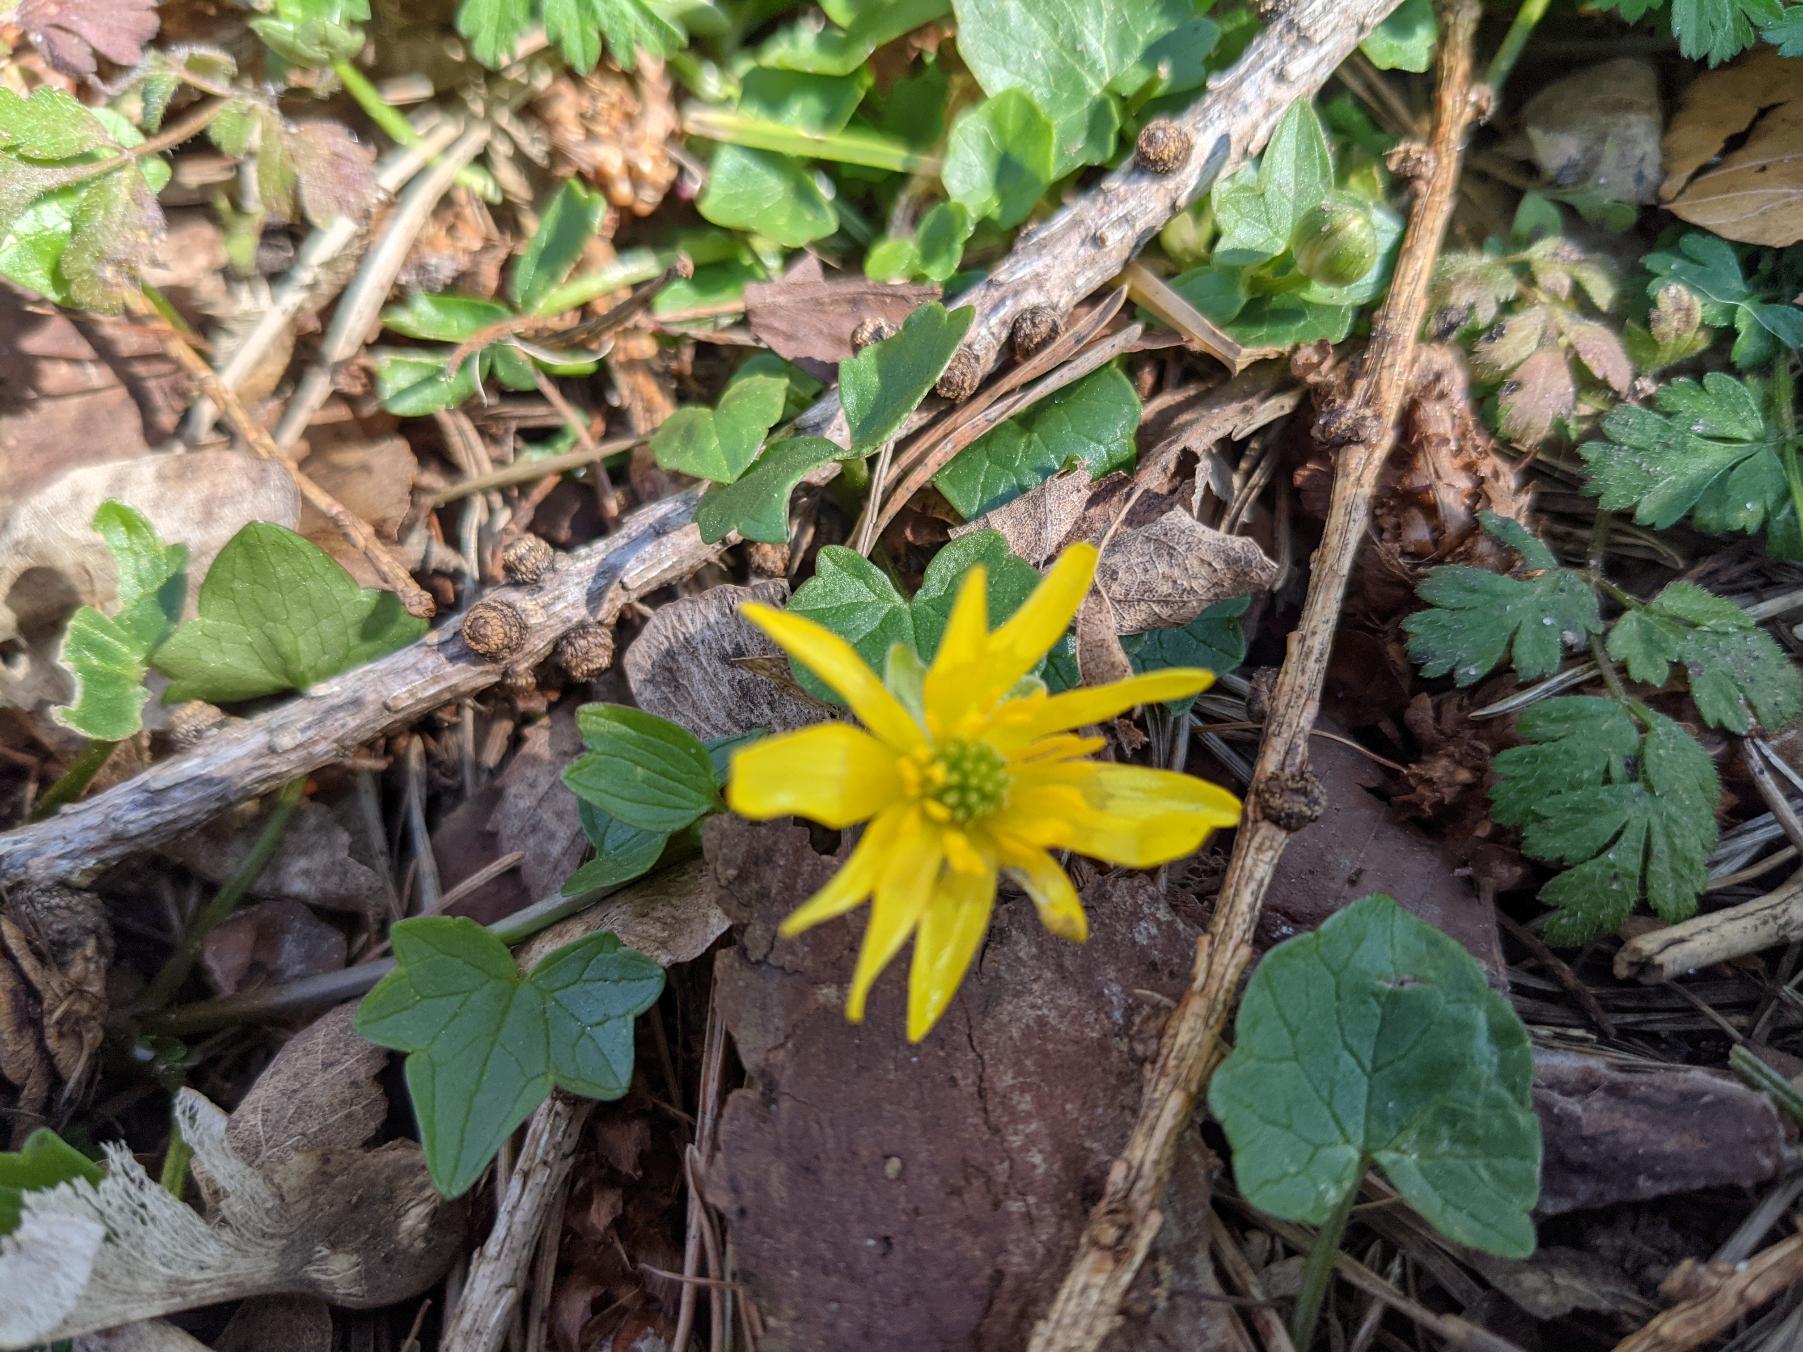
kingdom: Plantae
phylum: Tracheophyta
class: Magnoliopsida
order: Ranunculales
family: Ranunculaceae
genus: Ficaria
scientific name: Ficaria verna
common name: Vorterod
